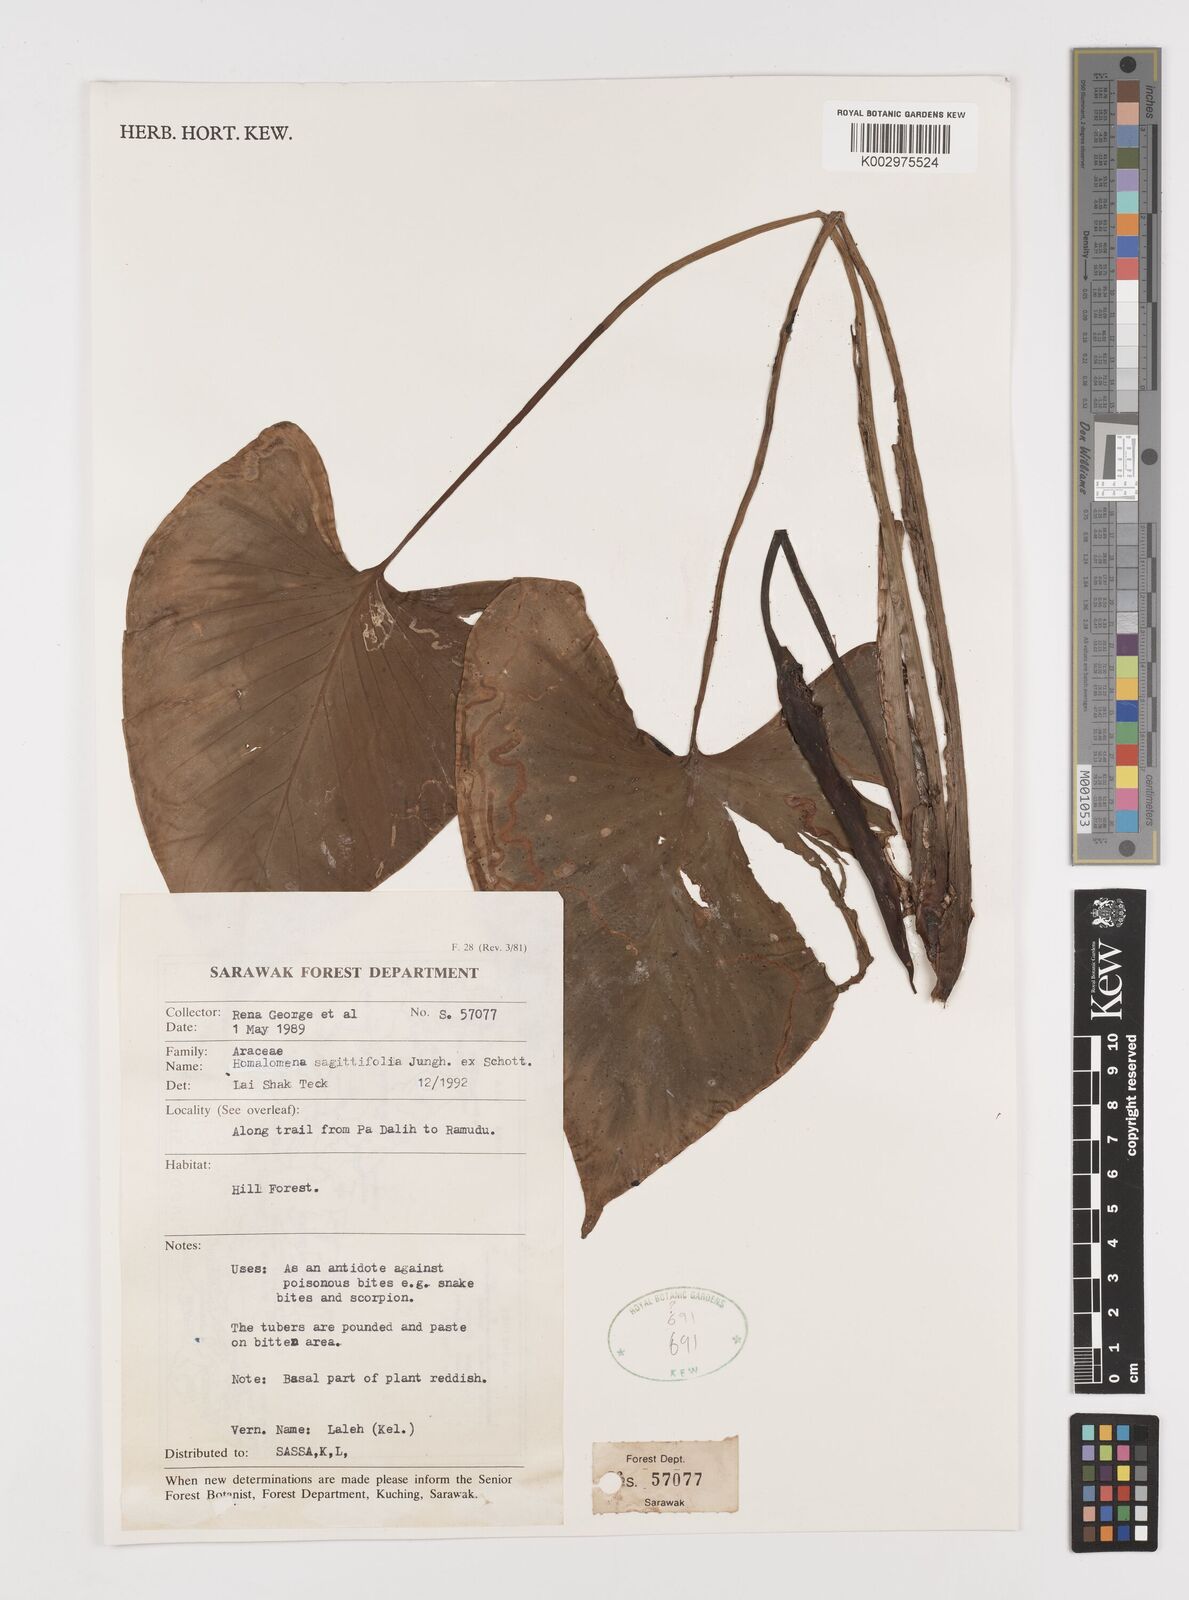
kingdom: Plantae
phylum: Tracheophyta
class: Liliopsida
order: Alismatales
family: Araceae
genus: Homalomena
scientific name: Homalomena rostrata
